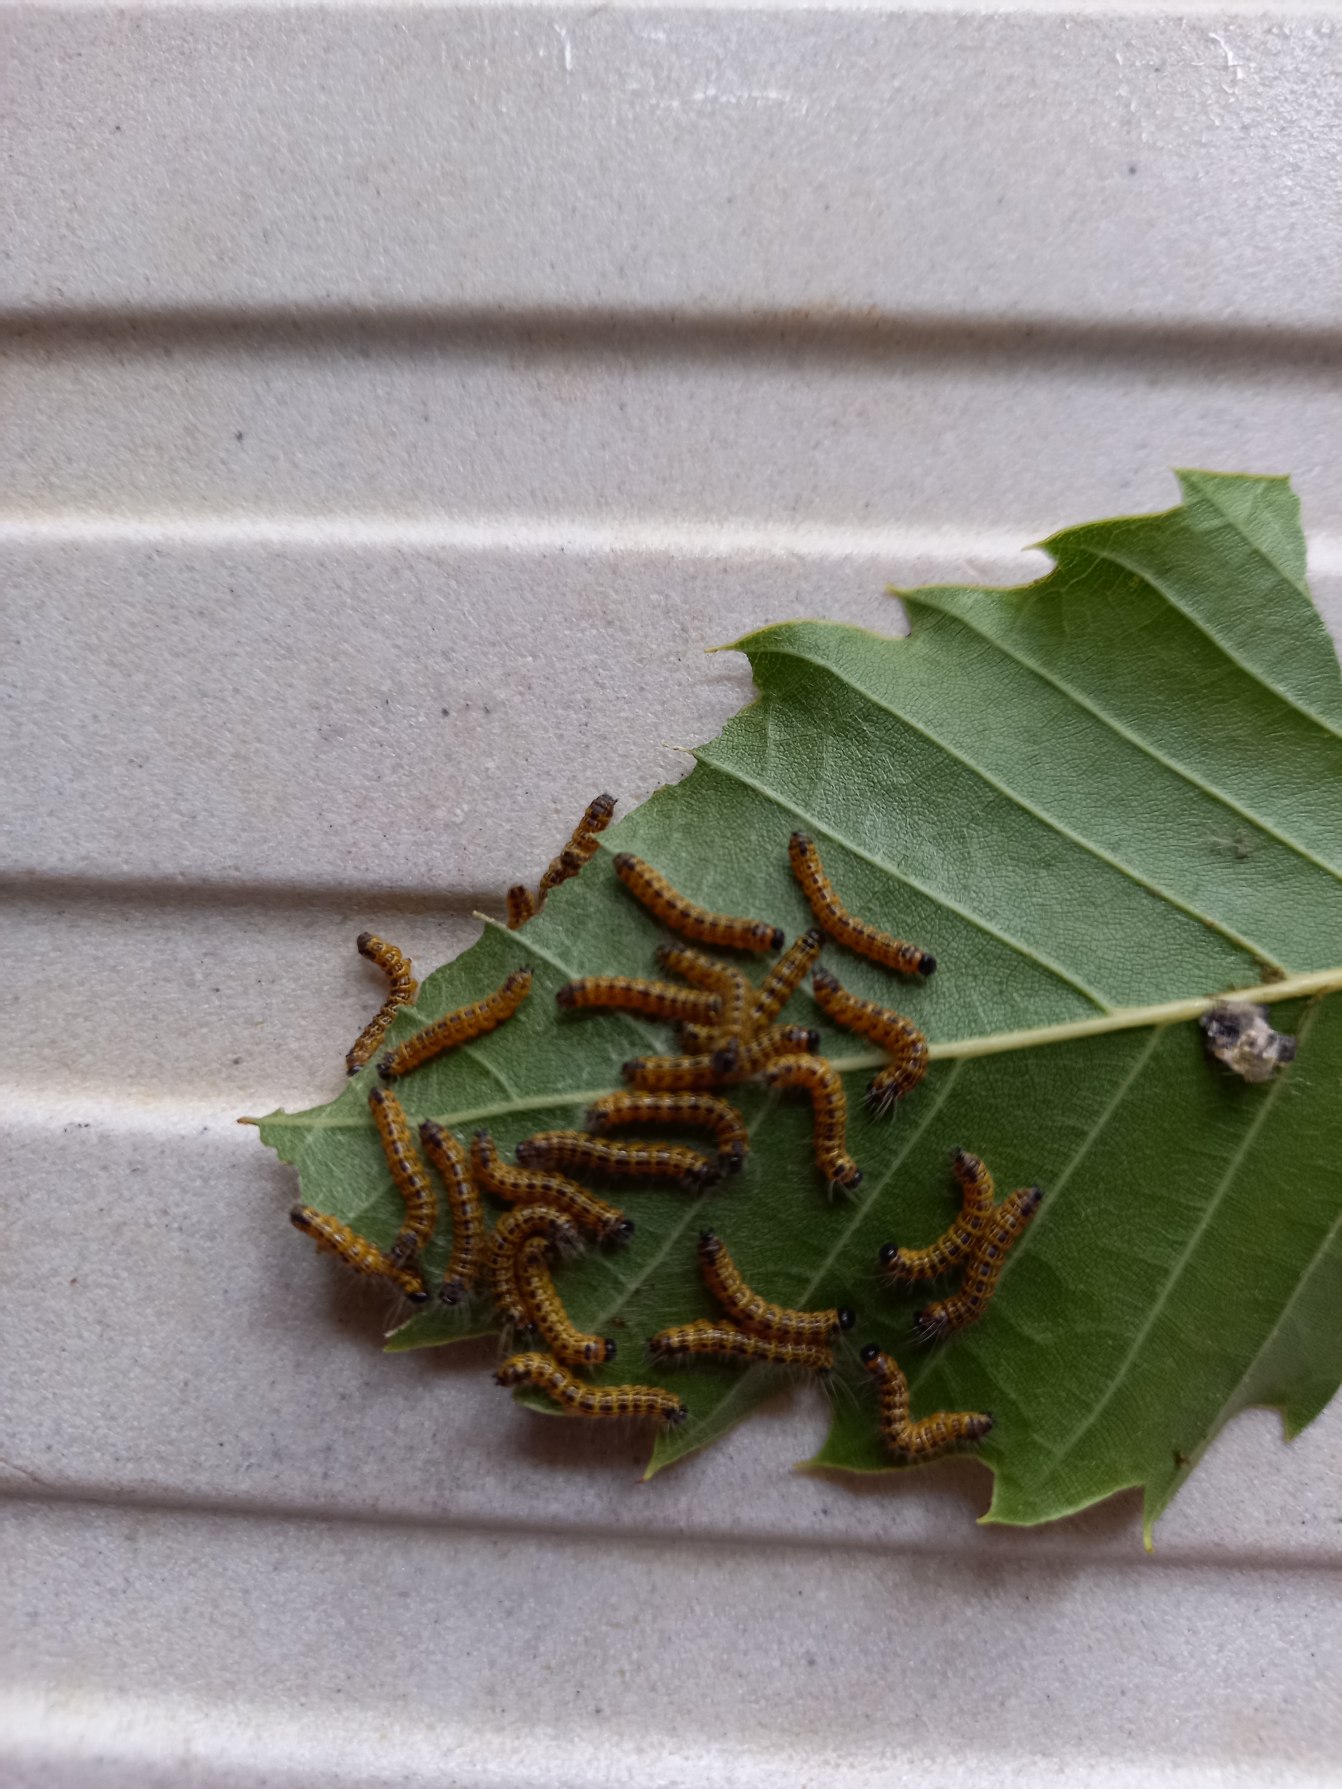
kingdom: Animalia
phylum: Arthropoda
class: Insecta
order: Lepidoptera
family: Notodontidae
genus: Phalera
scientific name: Phalera bucephala
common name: Måneplet
